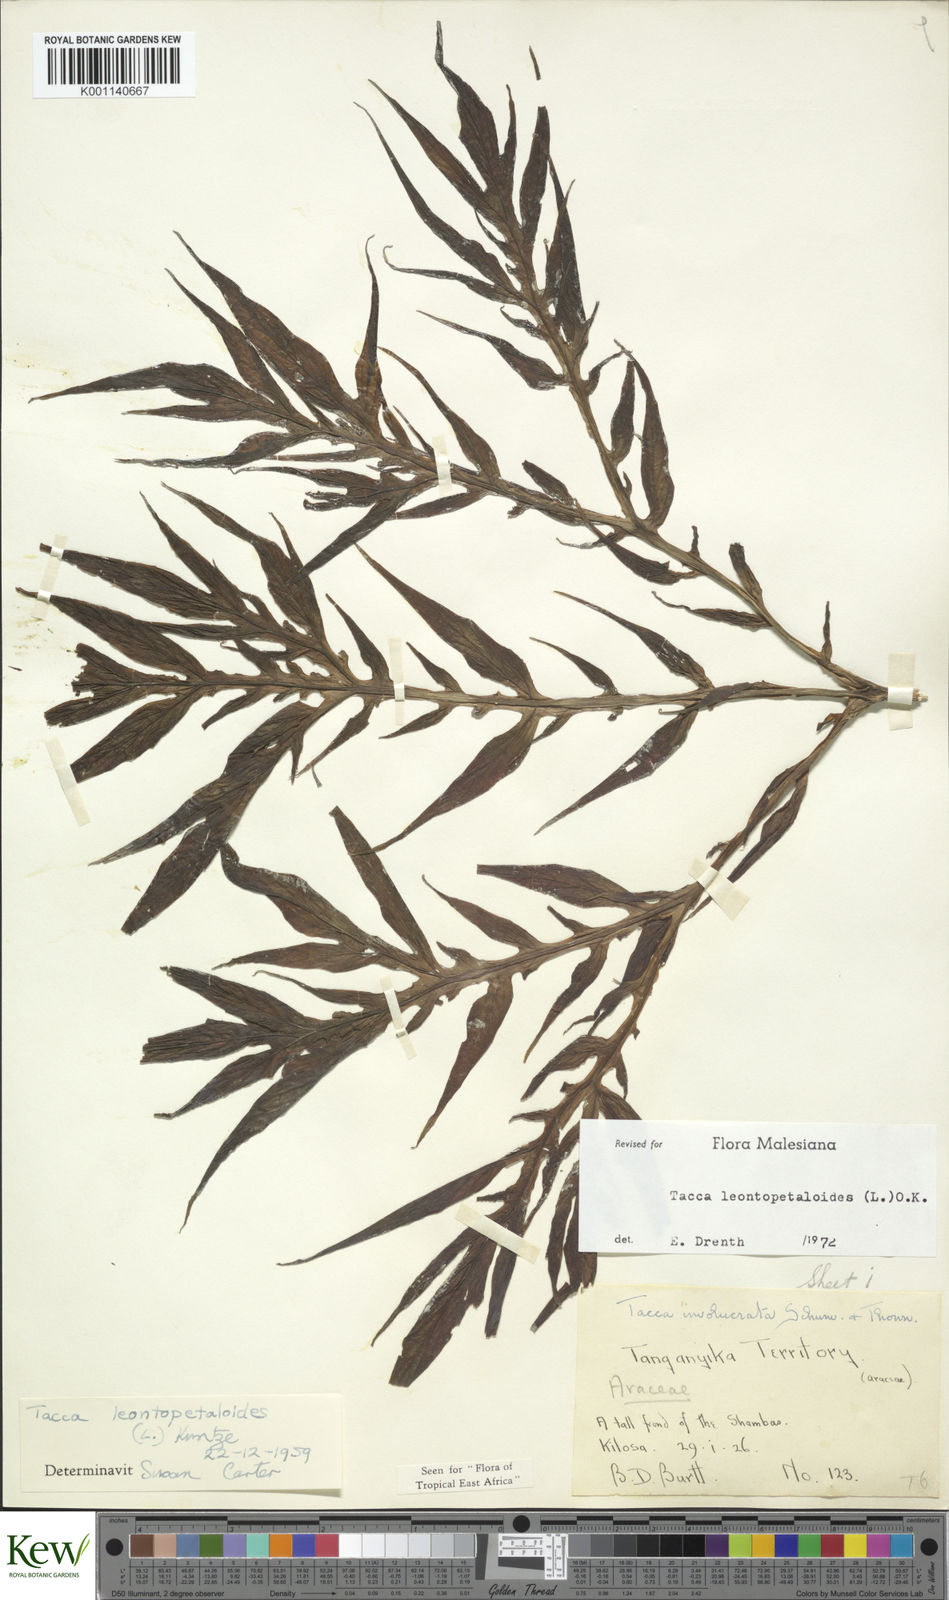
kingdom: Plantae
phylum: Tracheophyta
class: Liliopsida
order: Dioscoreales
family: Dioscoreaceae
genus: Tacca
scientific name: Tacca leontopetaloides
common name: Arrowroot
